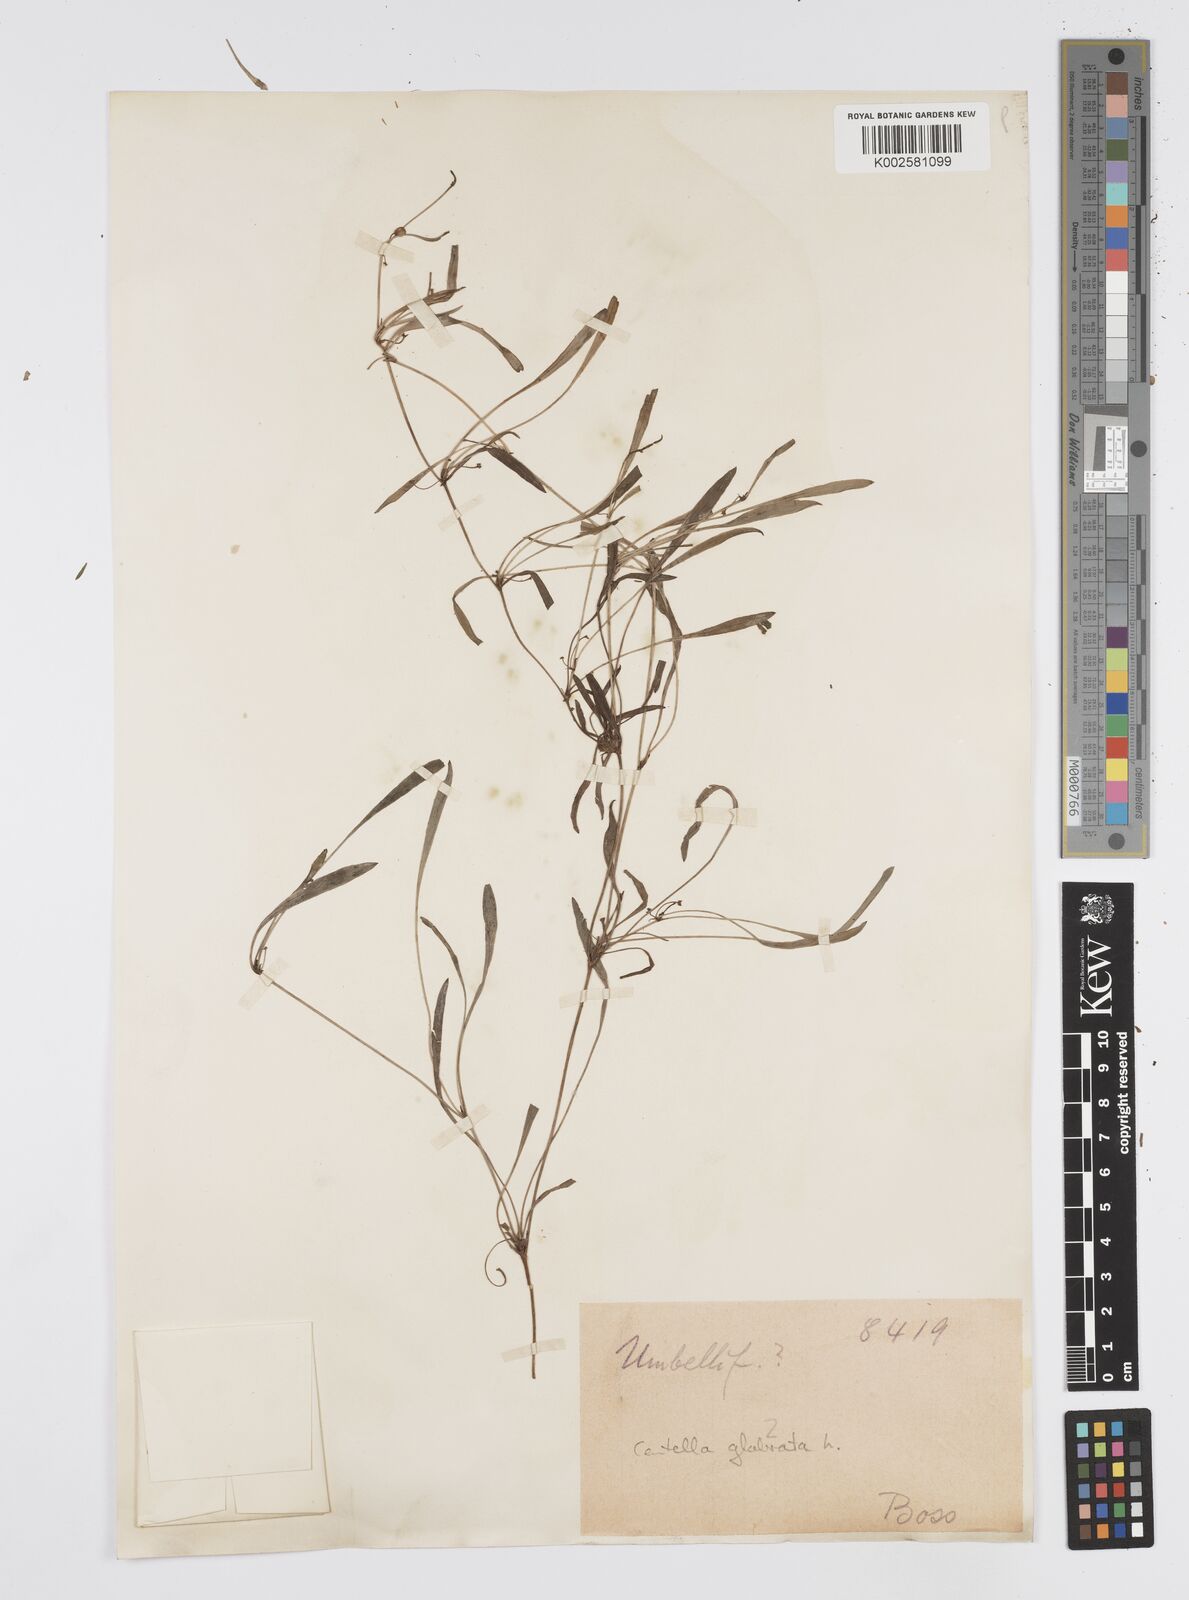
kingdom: Plantae
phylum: Tracheophyta
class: Magnoliopsida
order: Apiales
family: Apiaceae
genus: Centella
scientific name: Centella affinis
